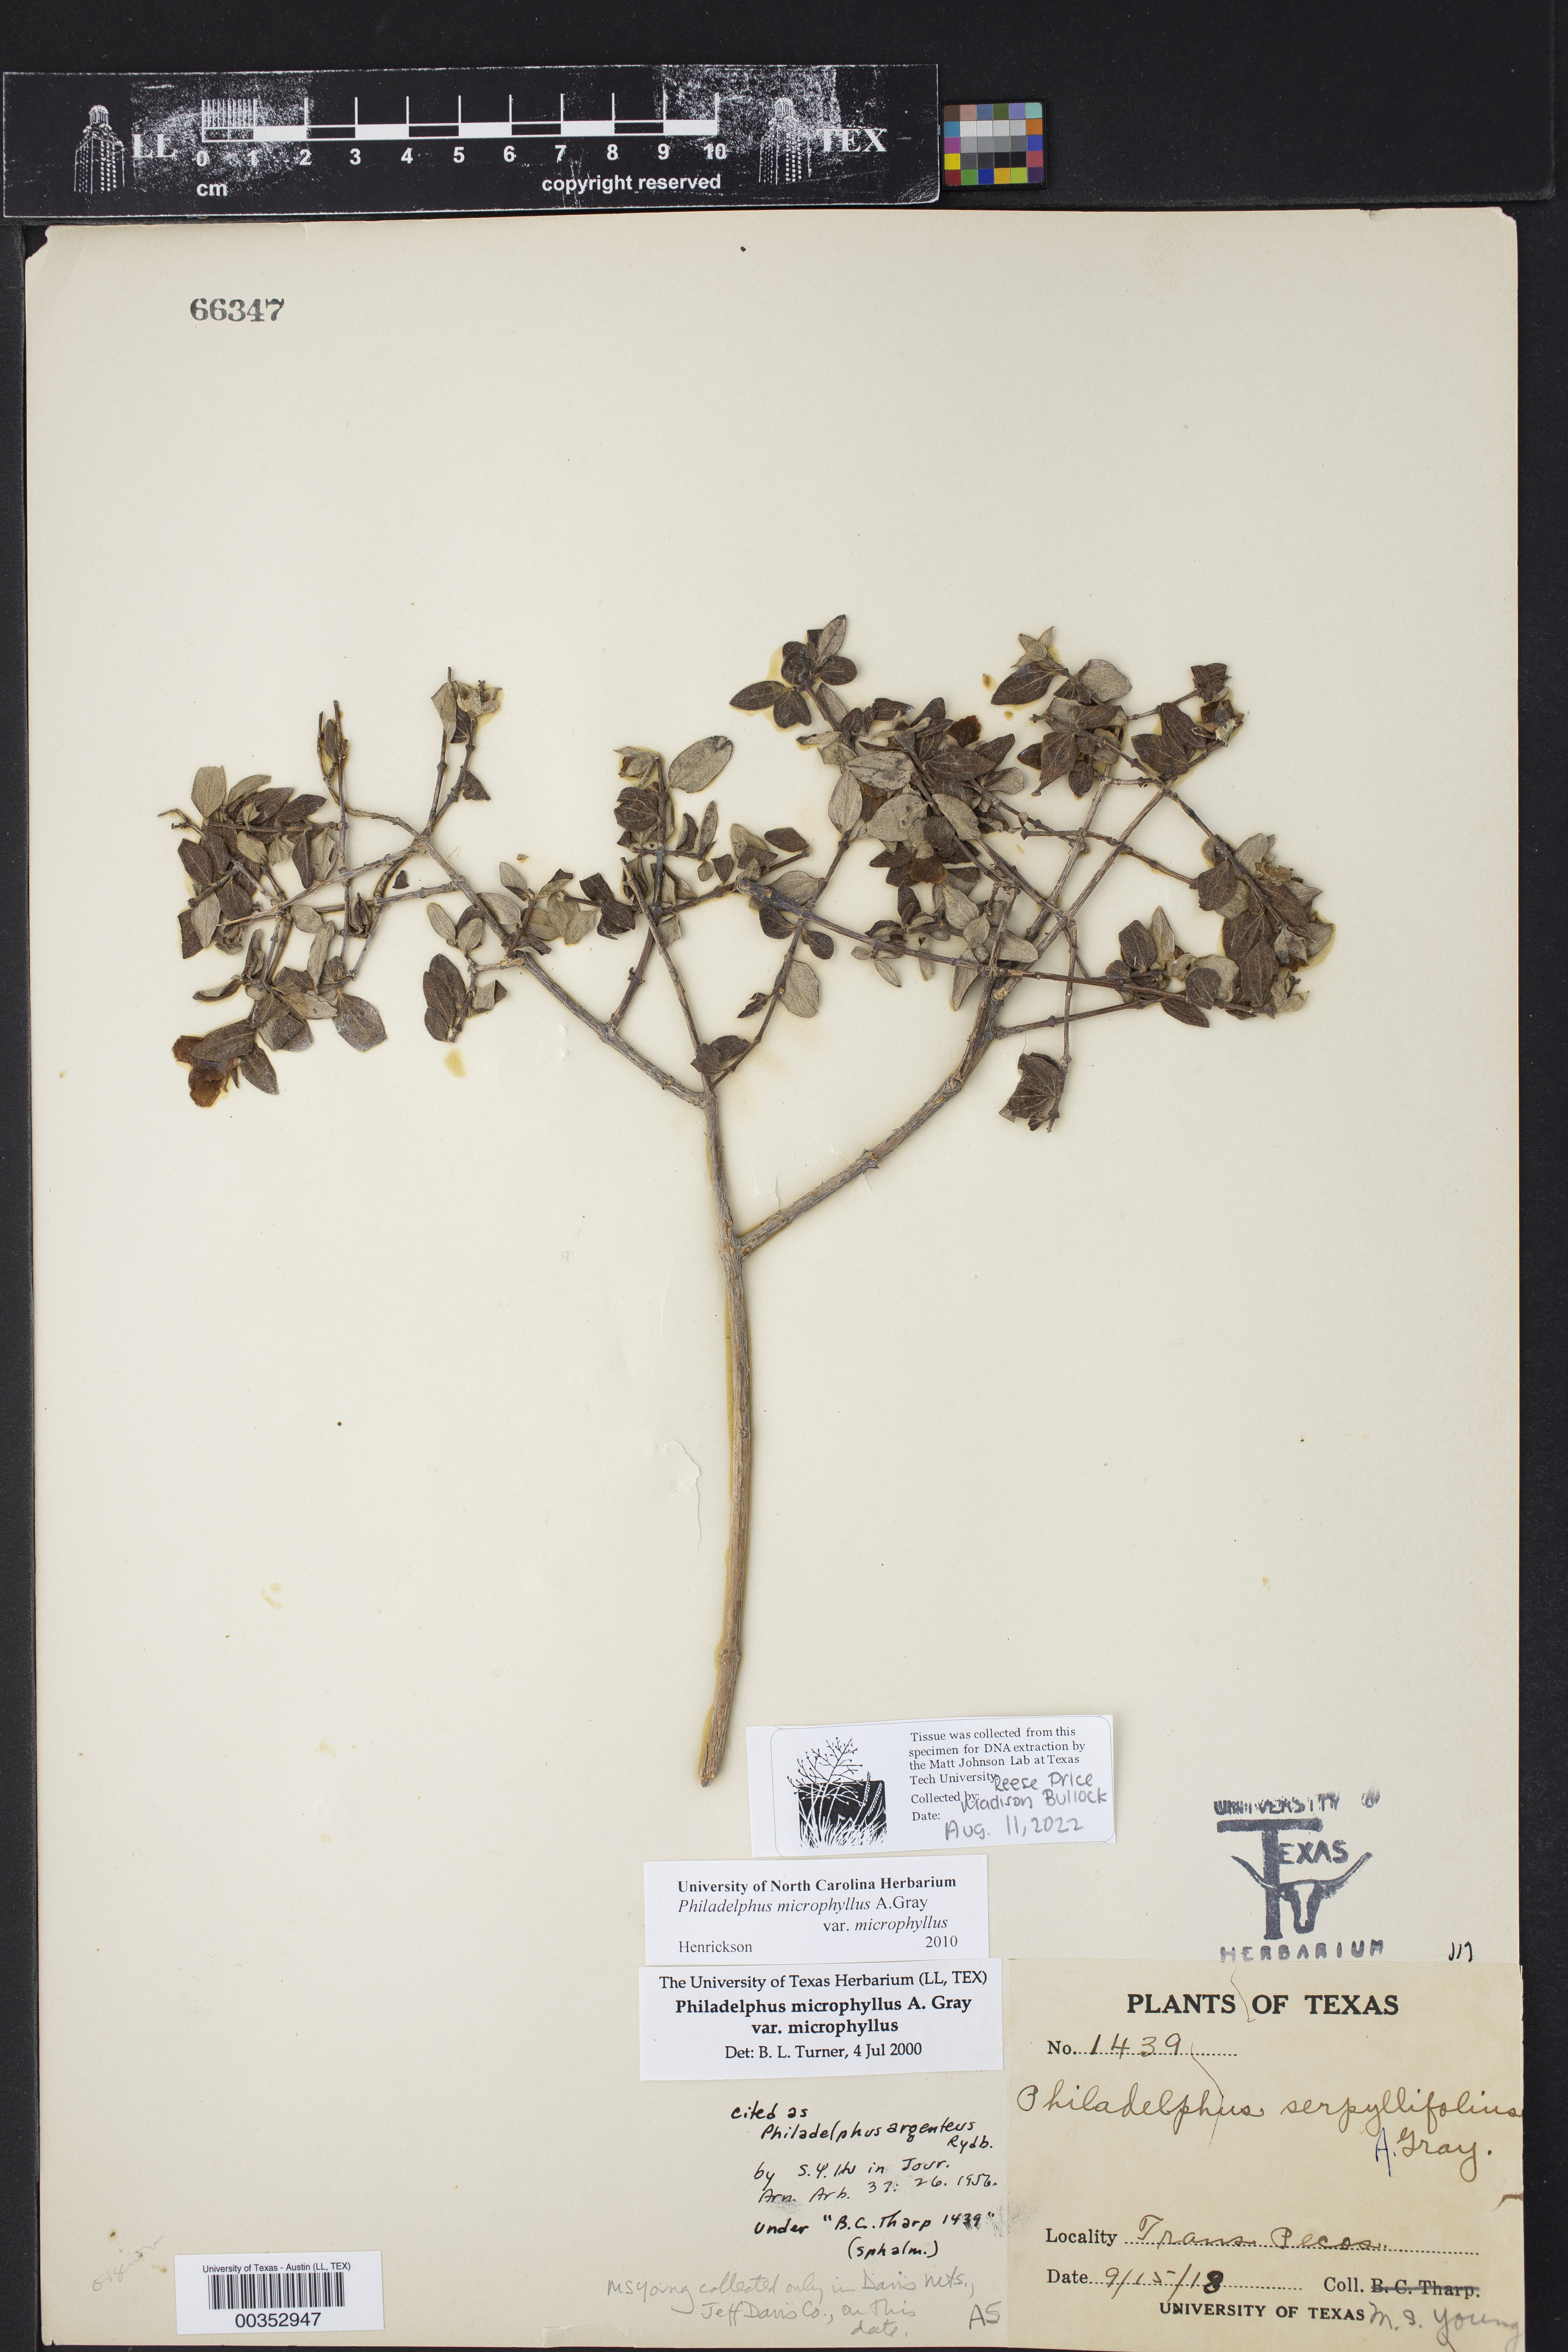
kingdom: Plantae
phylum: Tracheophyta
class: Magnoliopsida
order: Cornales
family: Hydrangeaceae
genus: Philadelphus
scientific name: Philadelphus microphyllus
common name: Desert mock orange
